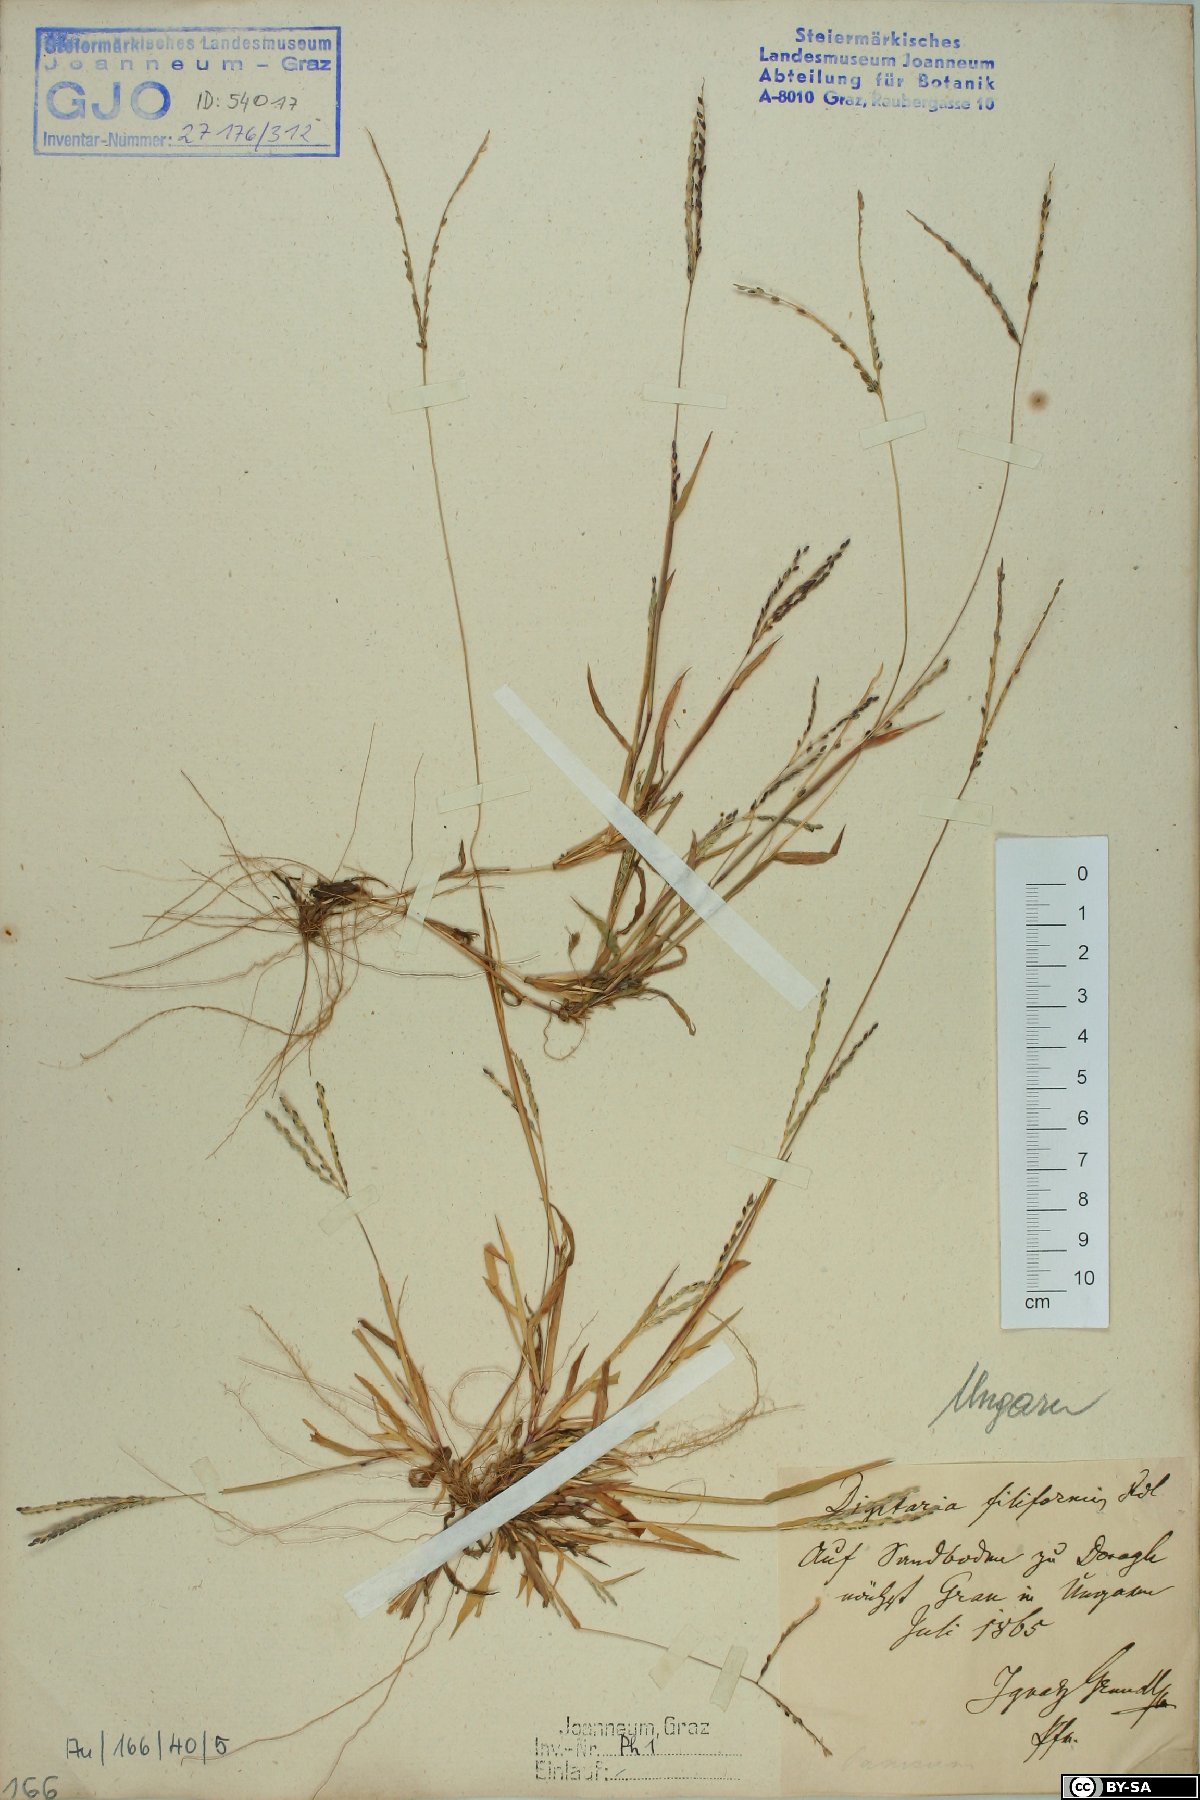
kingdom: Plantae
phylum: Tracheophyta
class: Liliopsida
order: Poales
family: Poaceae
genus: Digitaria
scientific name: Digitaria filiformis
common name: Slender crabgrass
